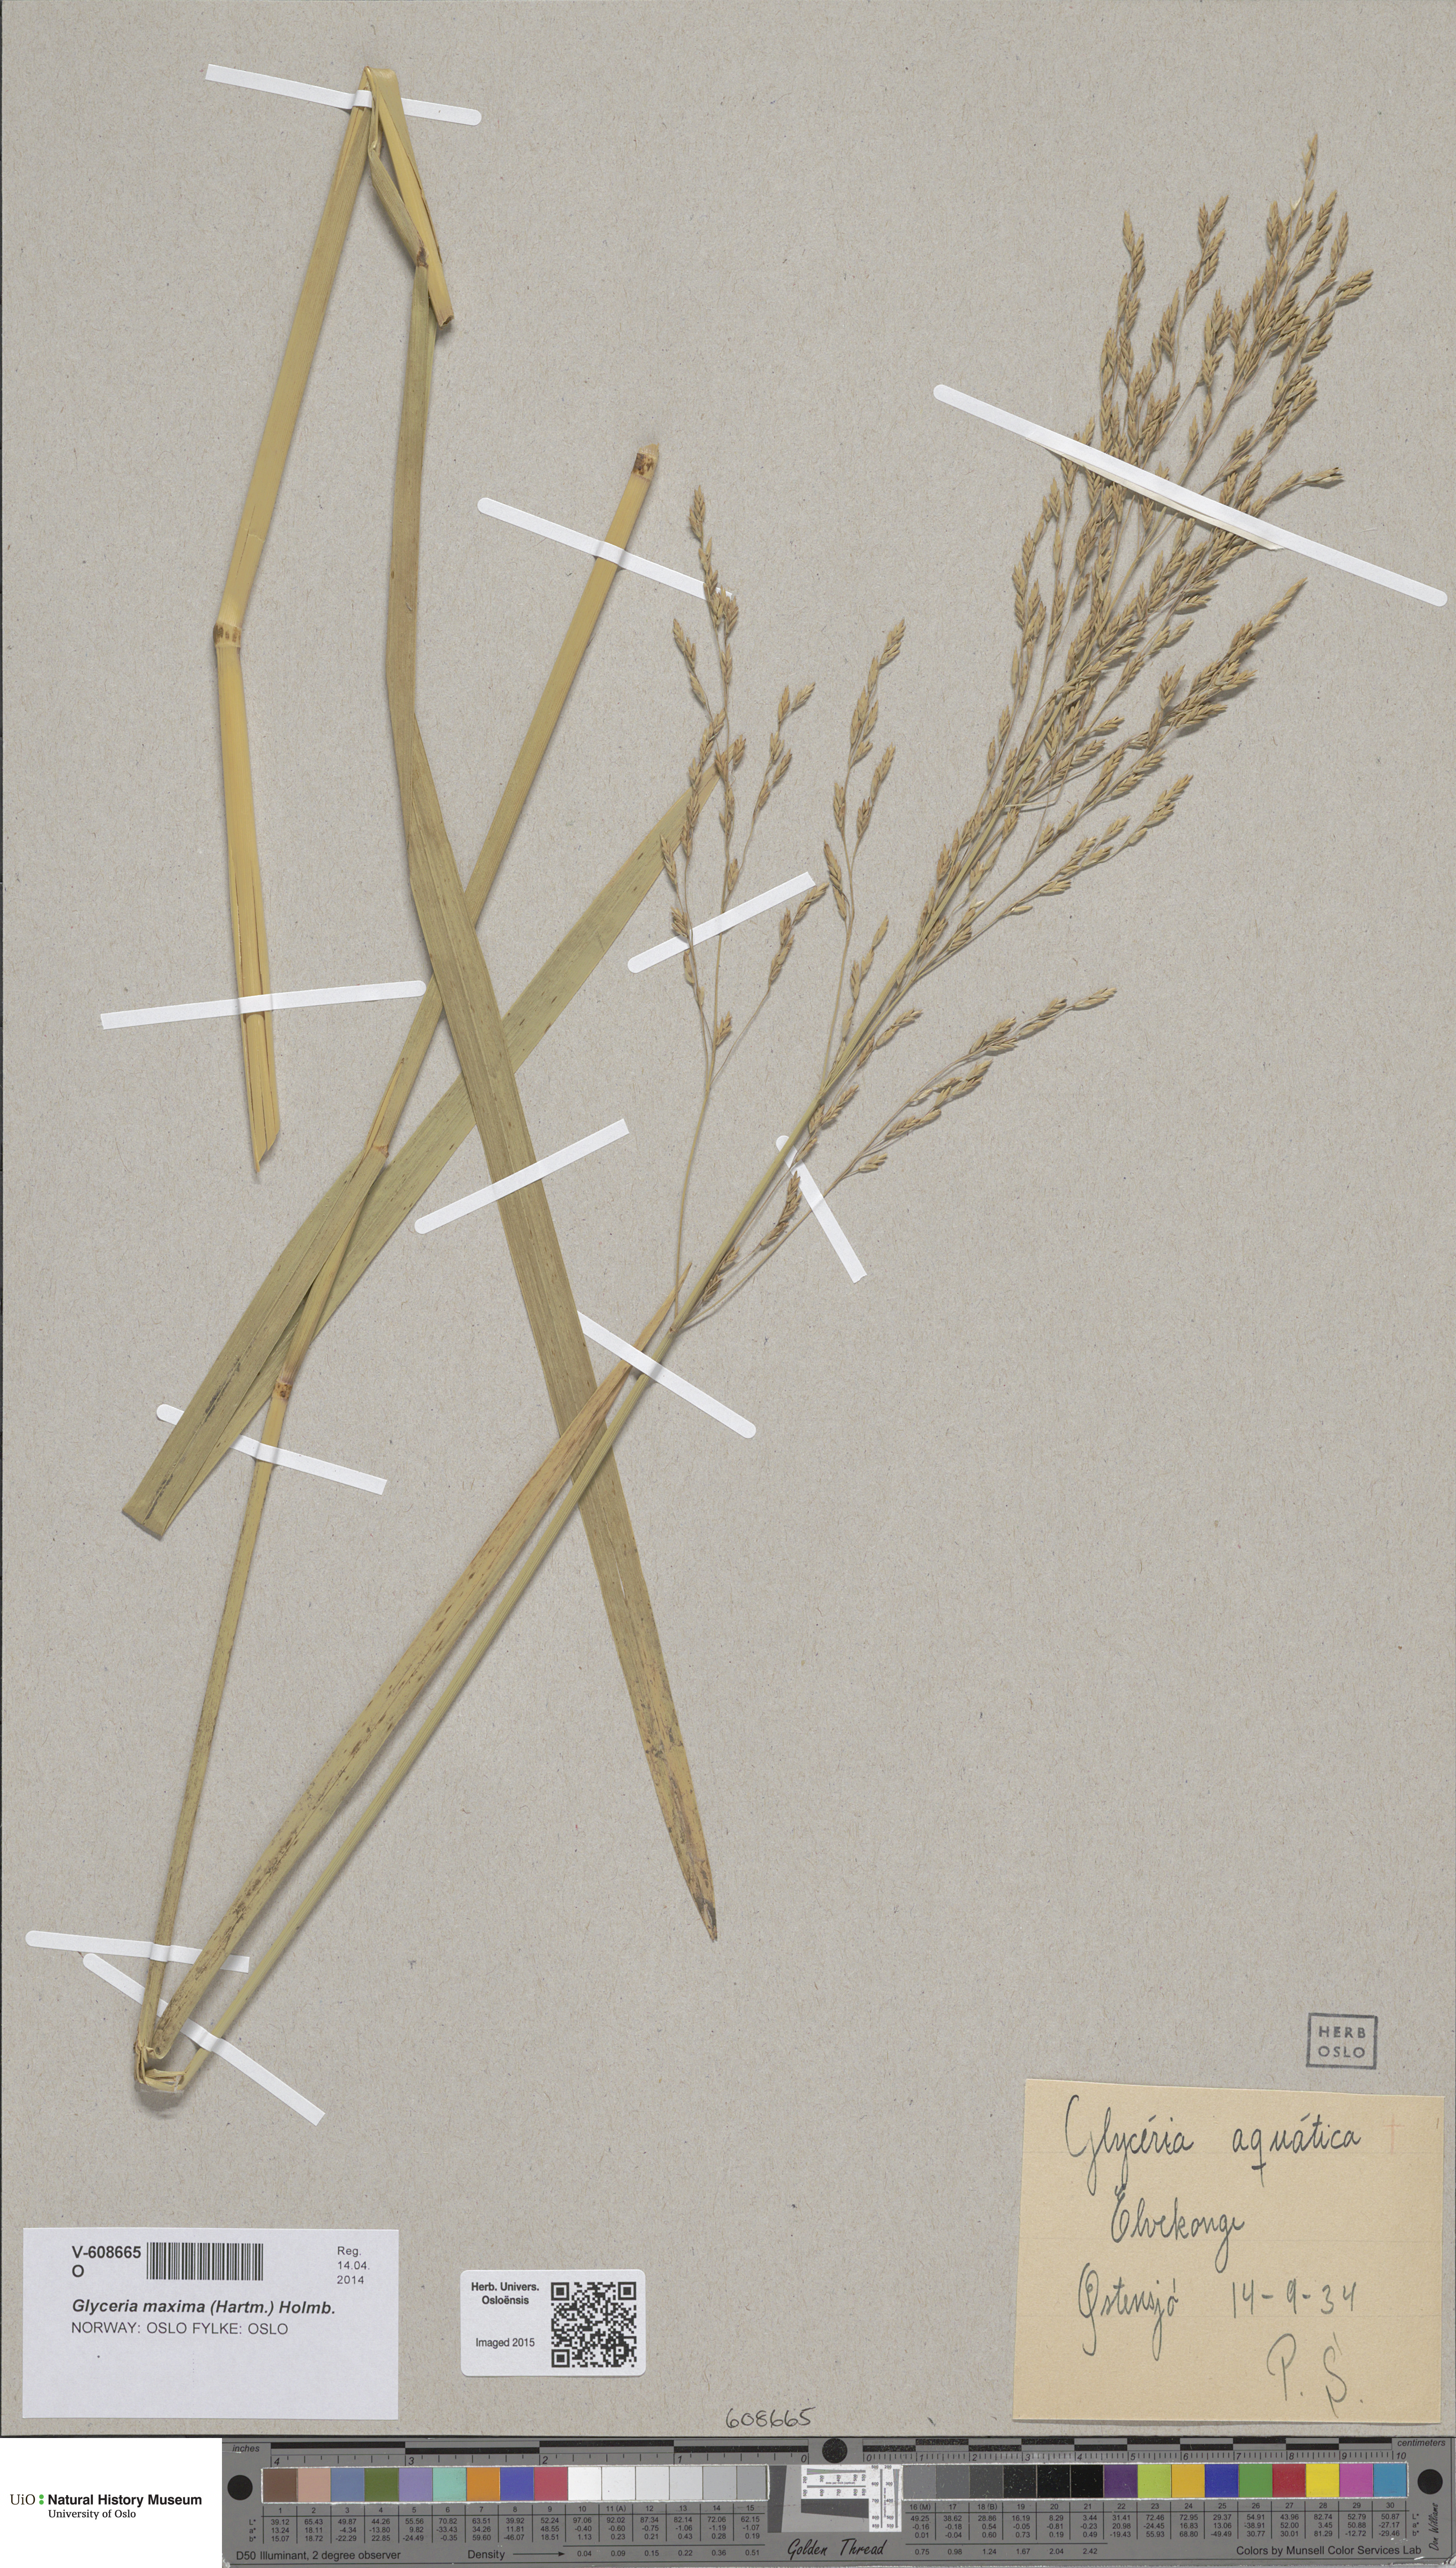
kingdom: Plantae
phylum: Tracheophyta
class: Liliopsida
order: Poales
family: Poaceae
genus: Glyceria
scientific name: Glyceria maxima
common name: Reed mannagrass
